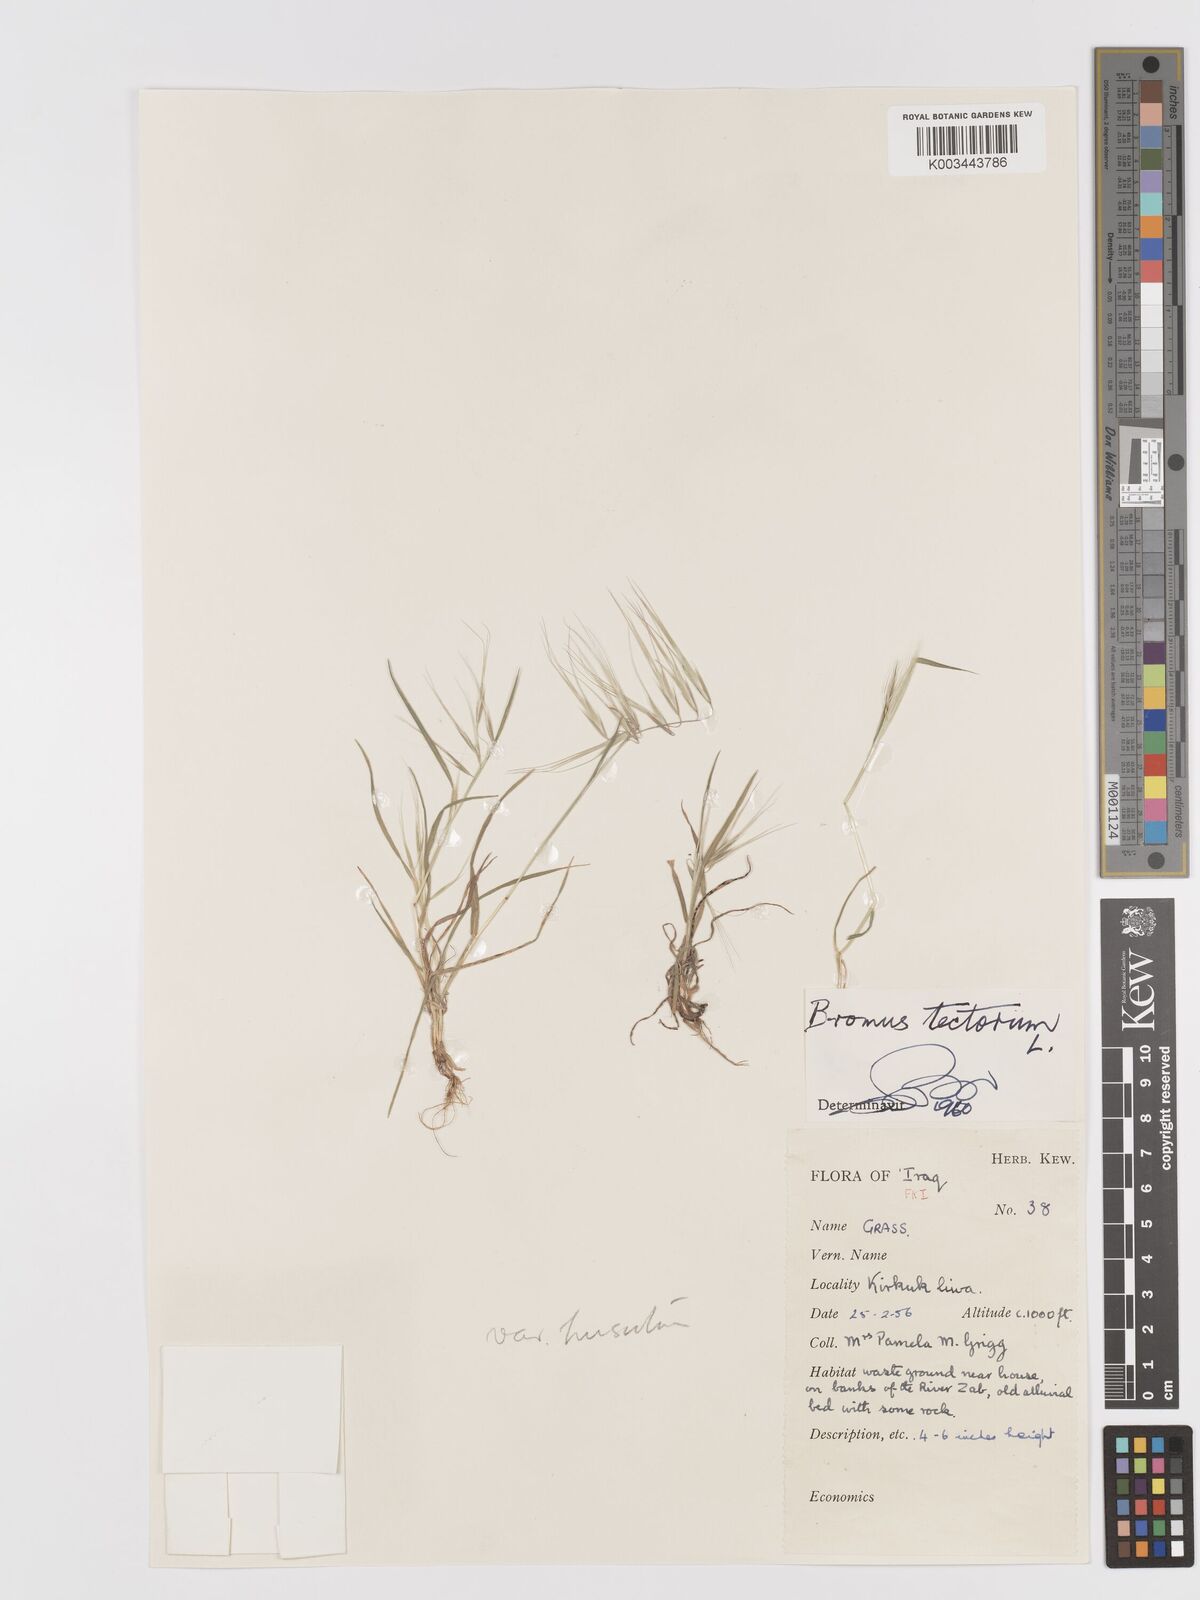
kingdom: Plantae
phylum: Tracheophyta
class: Liliopsida
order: Poales
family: Poaceae
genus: Bromus
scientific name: Bromus tectorum
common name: Cheatgrass
